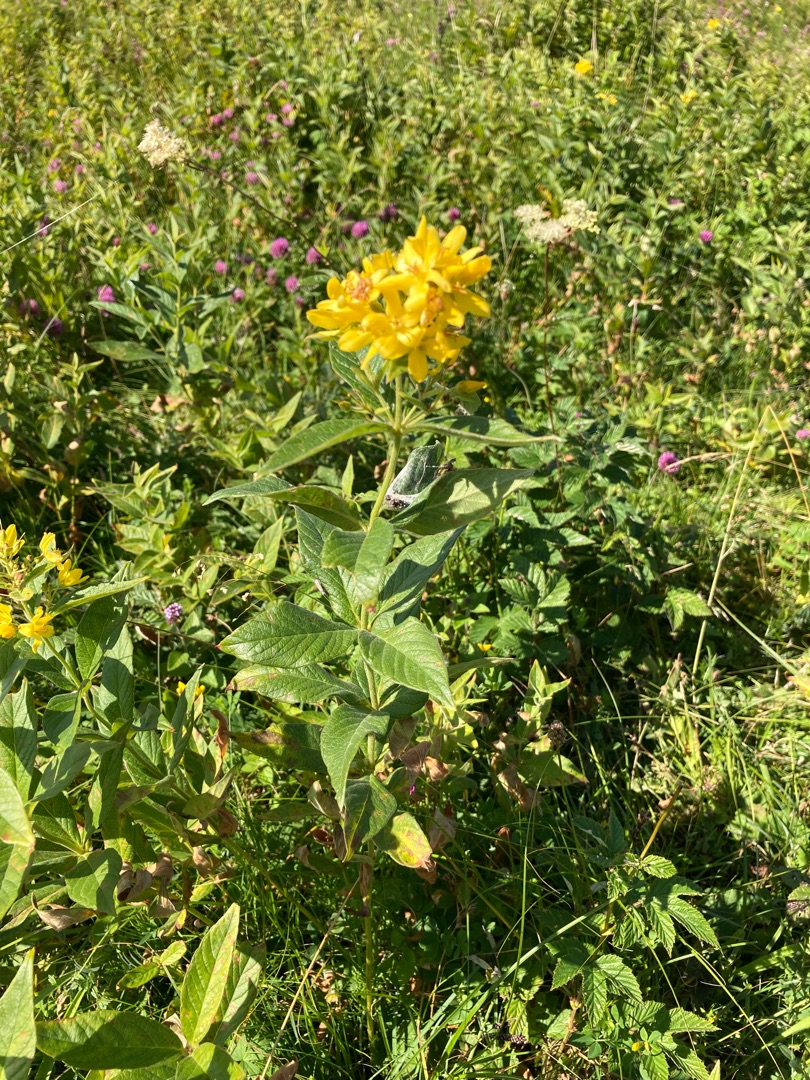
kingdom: Plantae
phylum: Tracheophyta
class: Magnoliopsida
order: Ericales
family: Primulaceae
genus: Lysimachia
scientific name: Lysimachia vulgaris
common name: Almindelig fredløs
